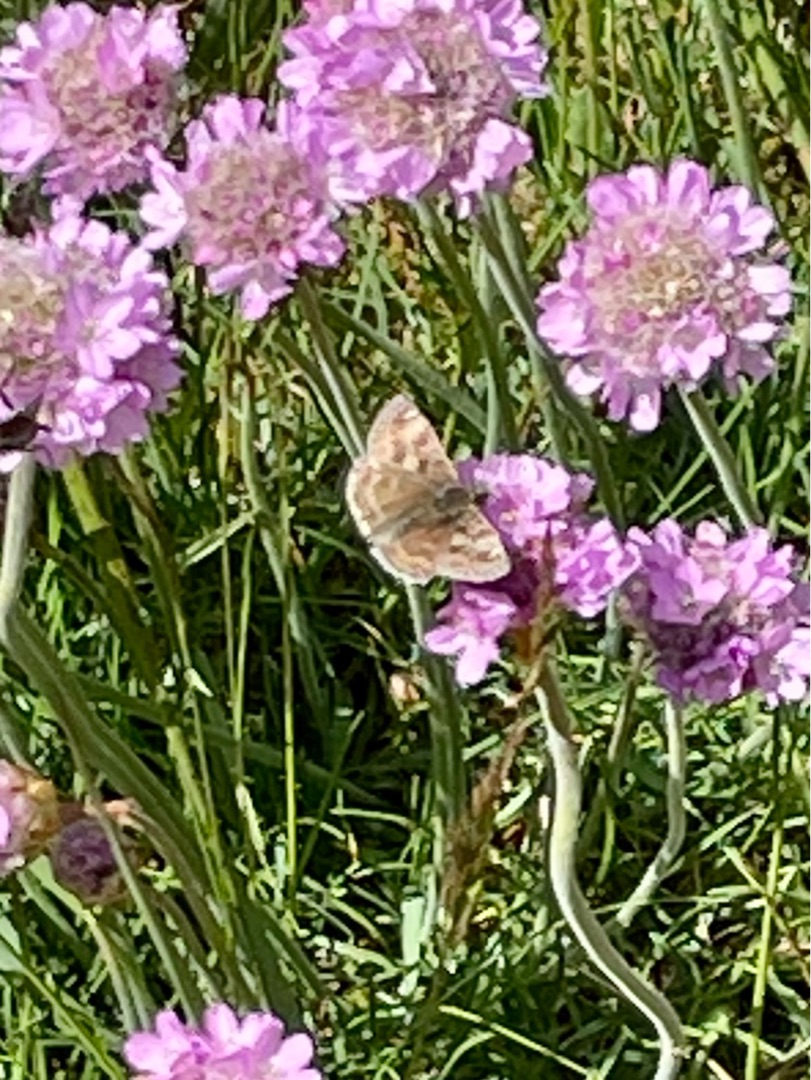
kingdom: Animalia
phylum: Arthropoda
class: Insecta
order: Lepidoptera
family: Hesperiidae
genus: Erynnis
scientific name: Erynnis tages
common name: Gråbåndet bredpande
